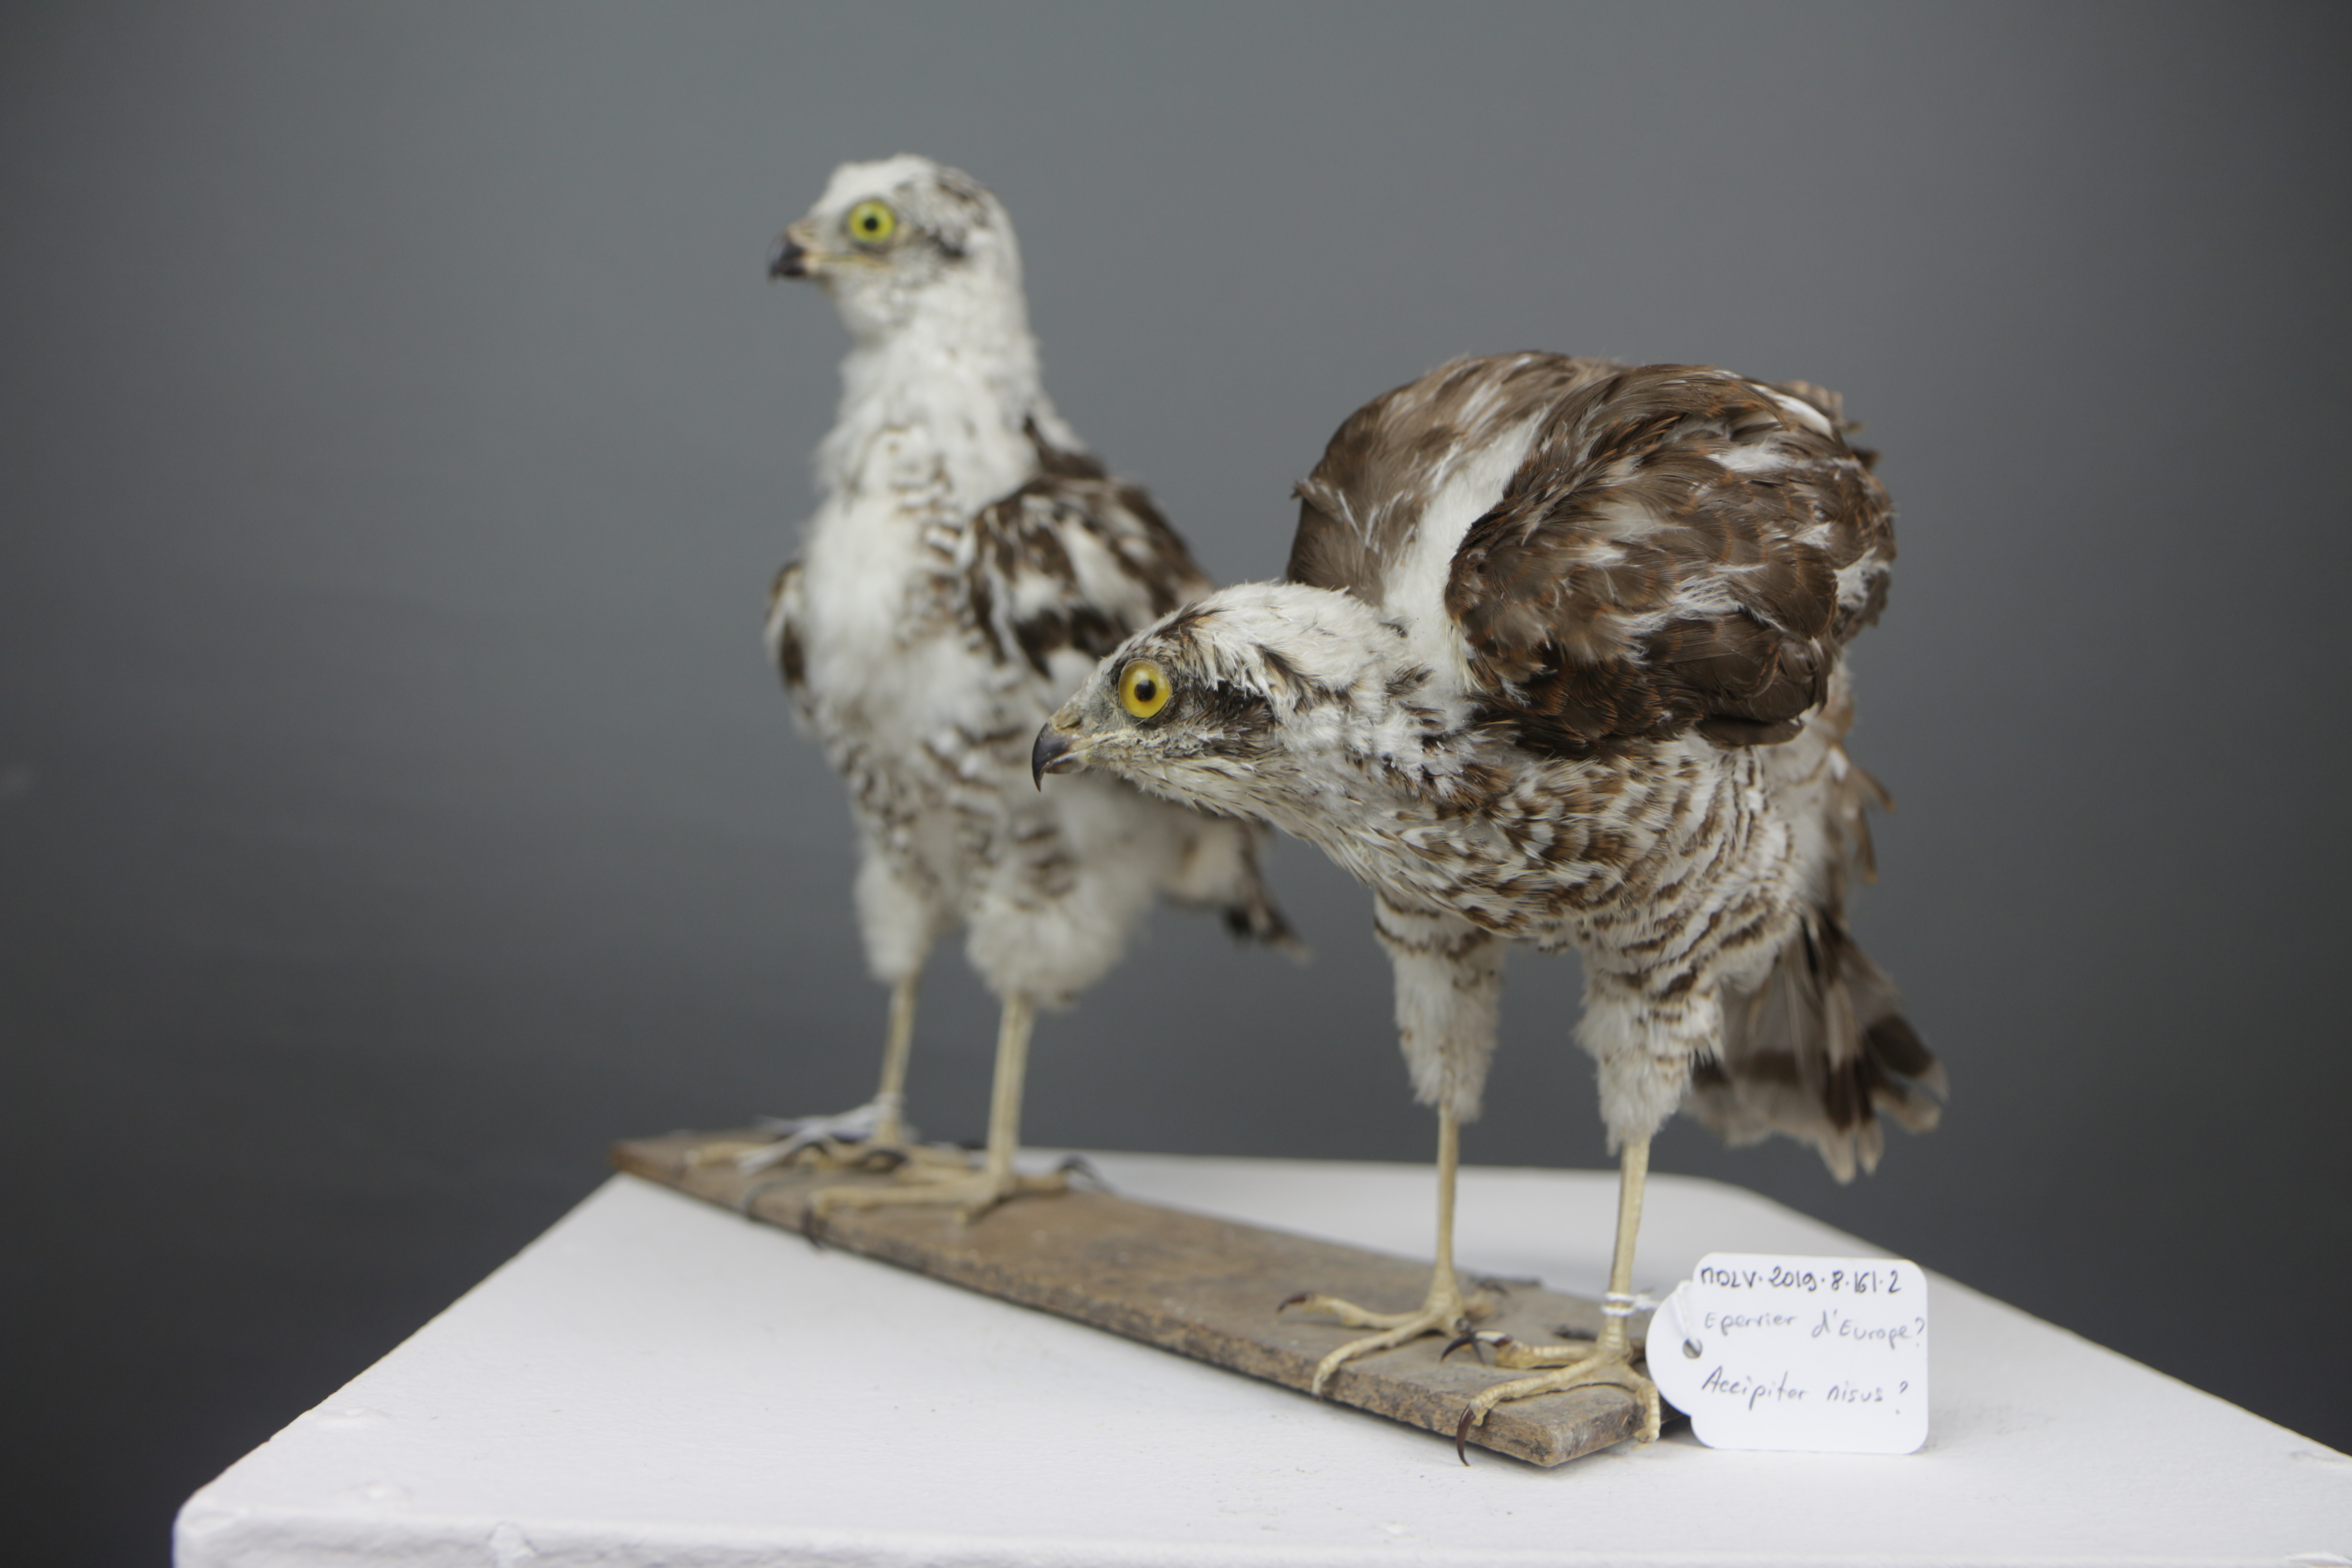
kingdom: Animalia
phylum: Chordata
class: Aves
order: Accipitriformes
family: Accipitridae
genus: Accipiter
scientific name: Accipiter nisus
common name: Eurasian sparrowhawk
